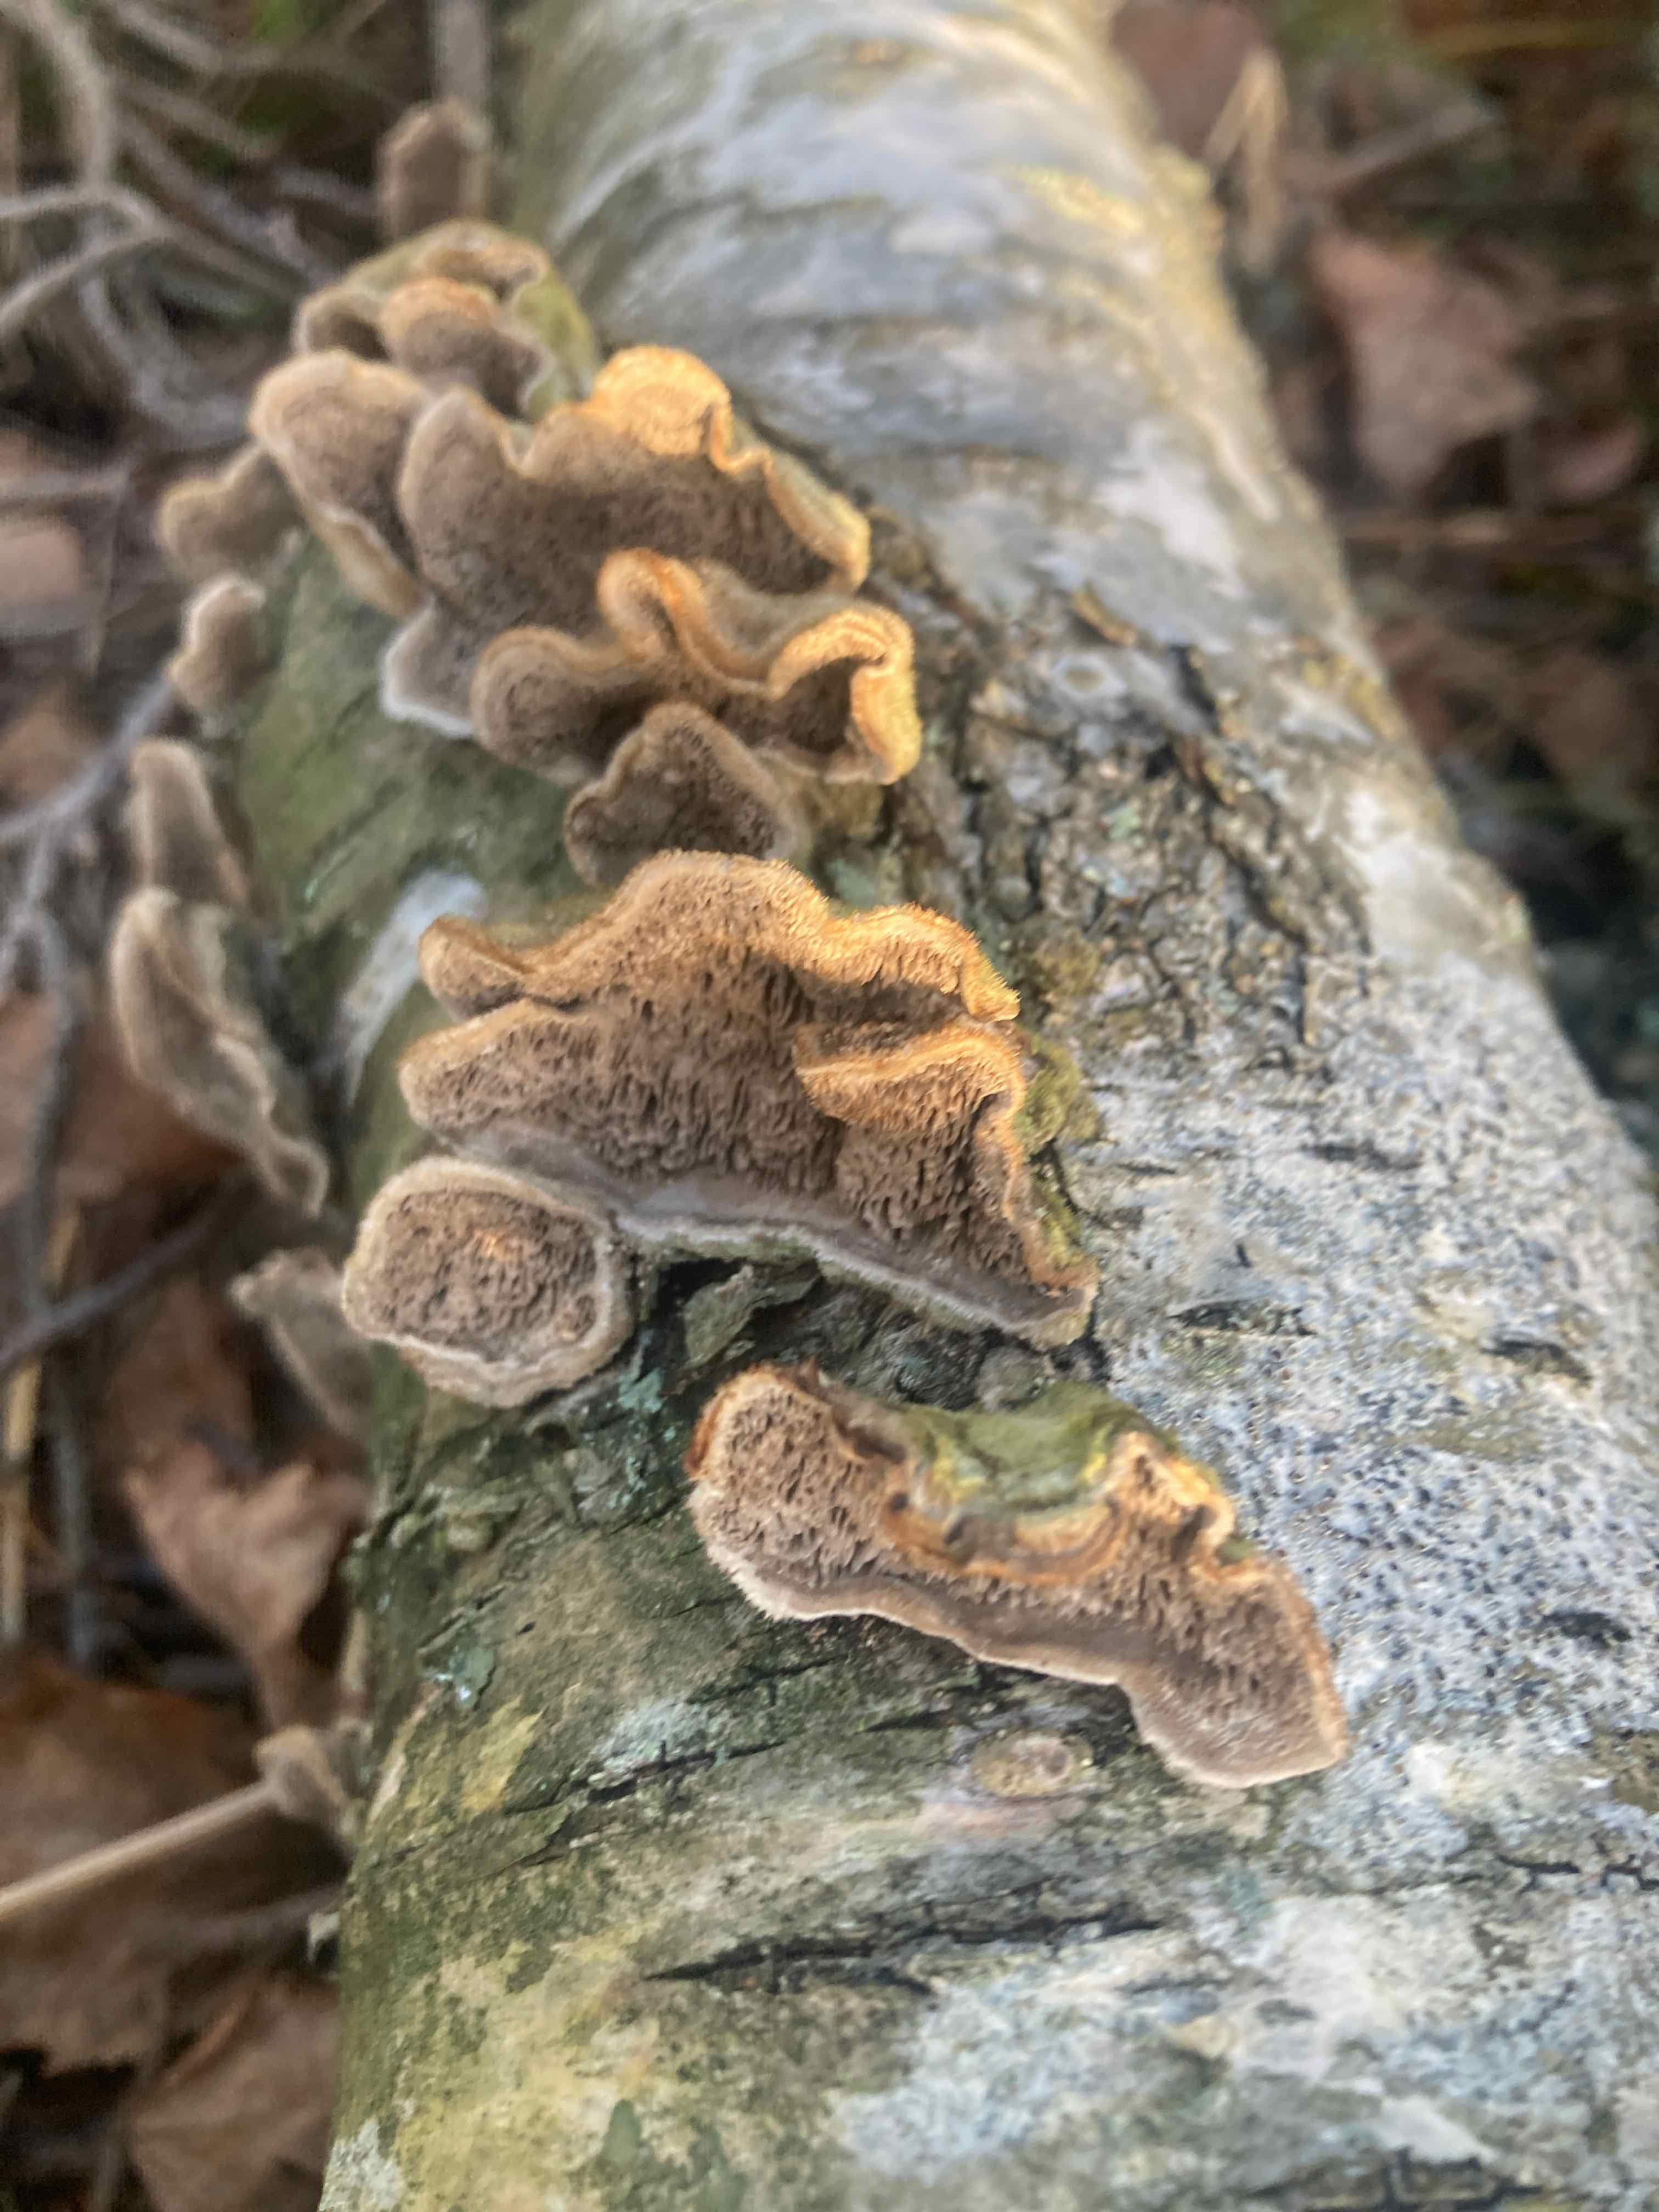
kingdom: Fungi
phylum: Basidiomycota
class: Agaricomycetes
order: Polyporales
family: Cerrenaceae
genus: Cerrena
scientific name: Cerrena unicolor
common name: ensfarvet læderporesvamp
